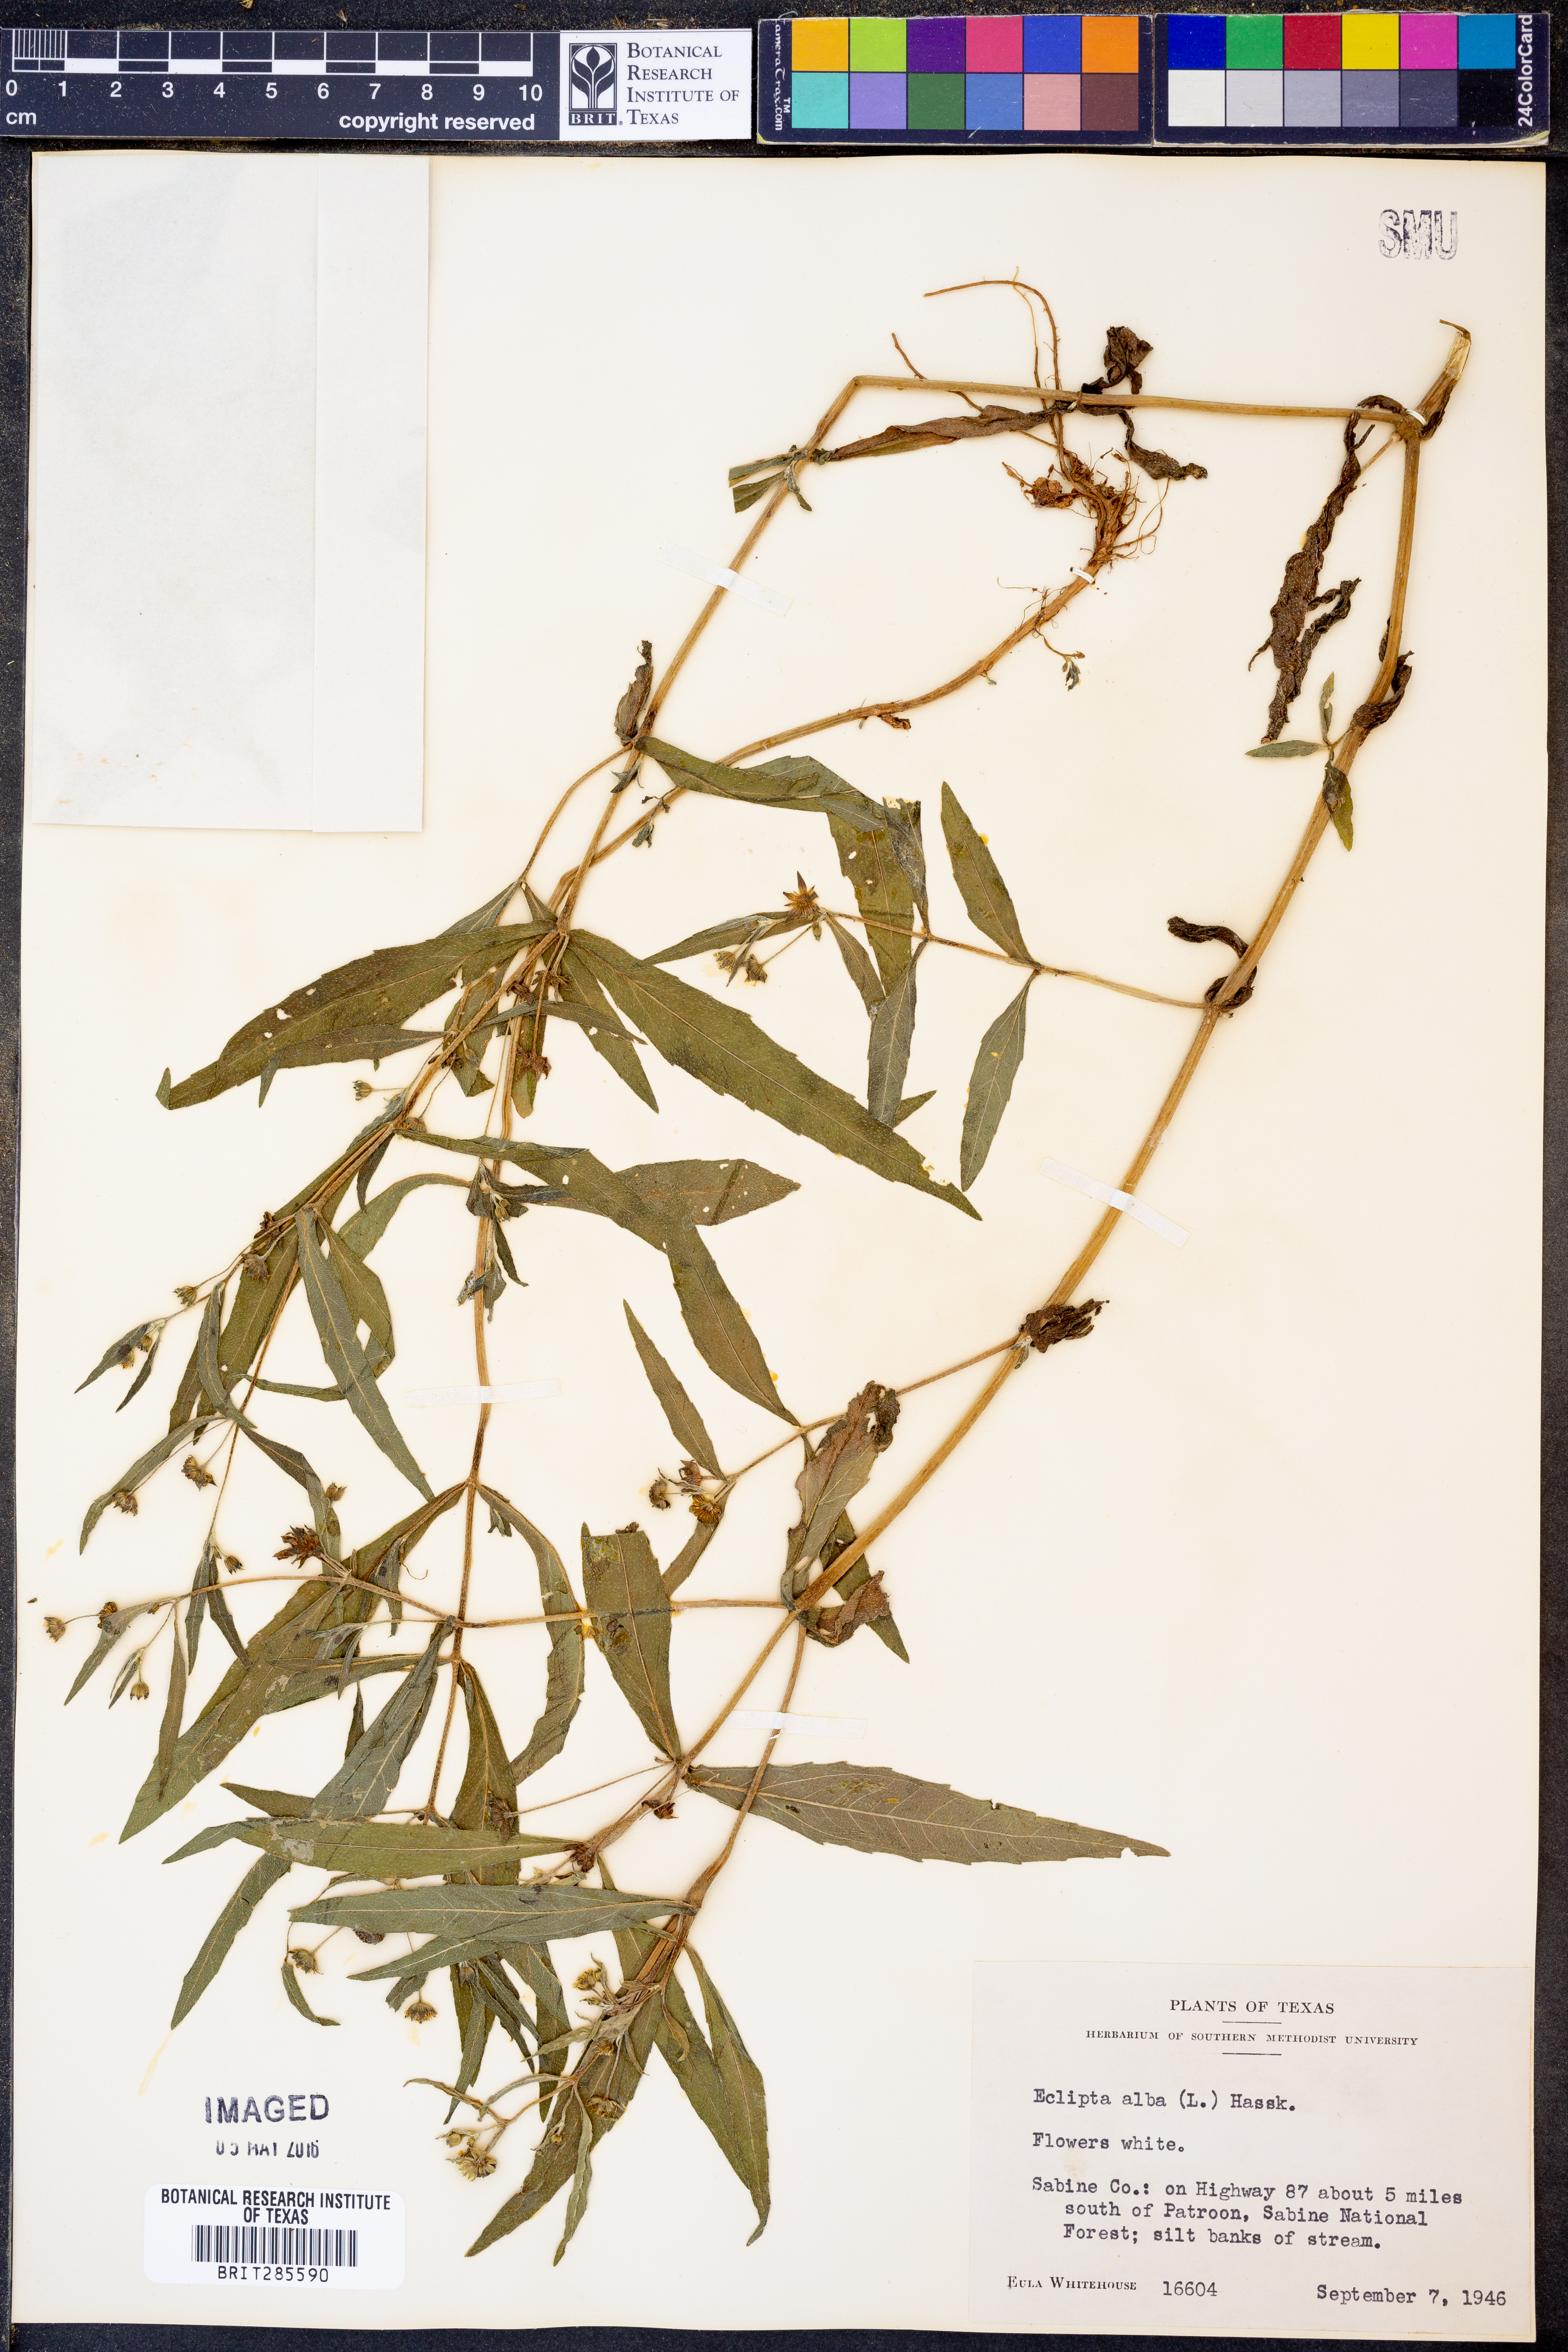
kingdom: Plantae
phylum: Tracheophyta
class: Magnoliopsida
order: Asterales
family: Asteraceae
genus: Eclipta
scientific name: Eclipta alba
